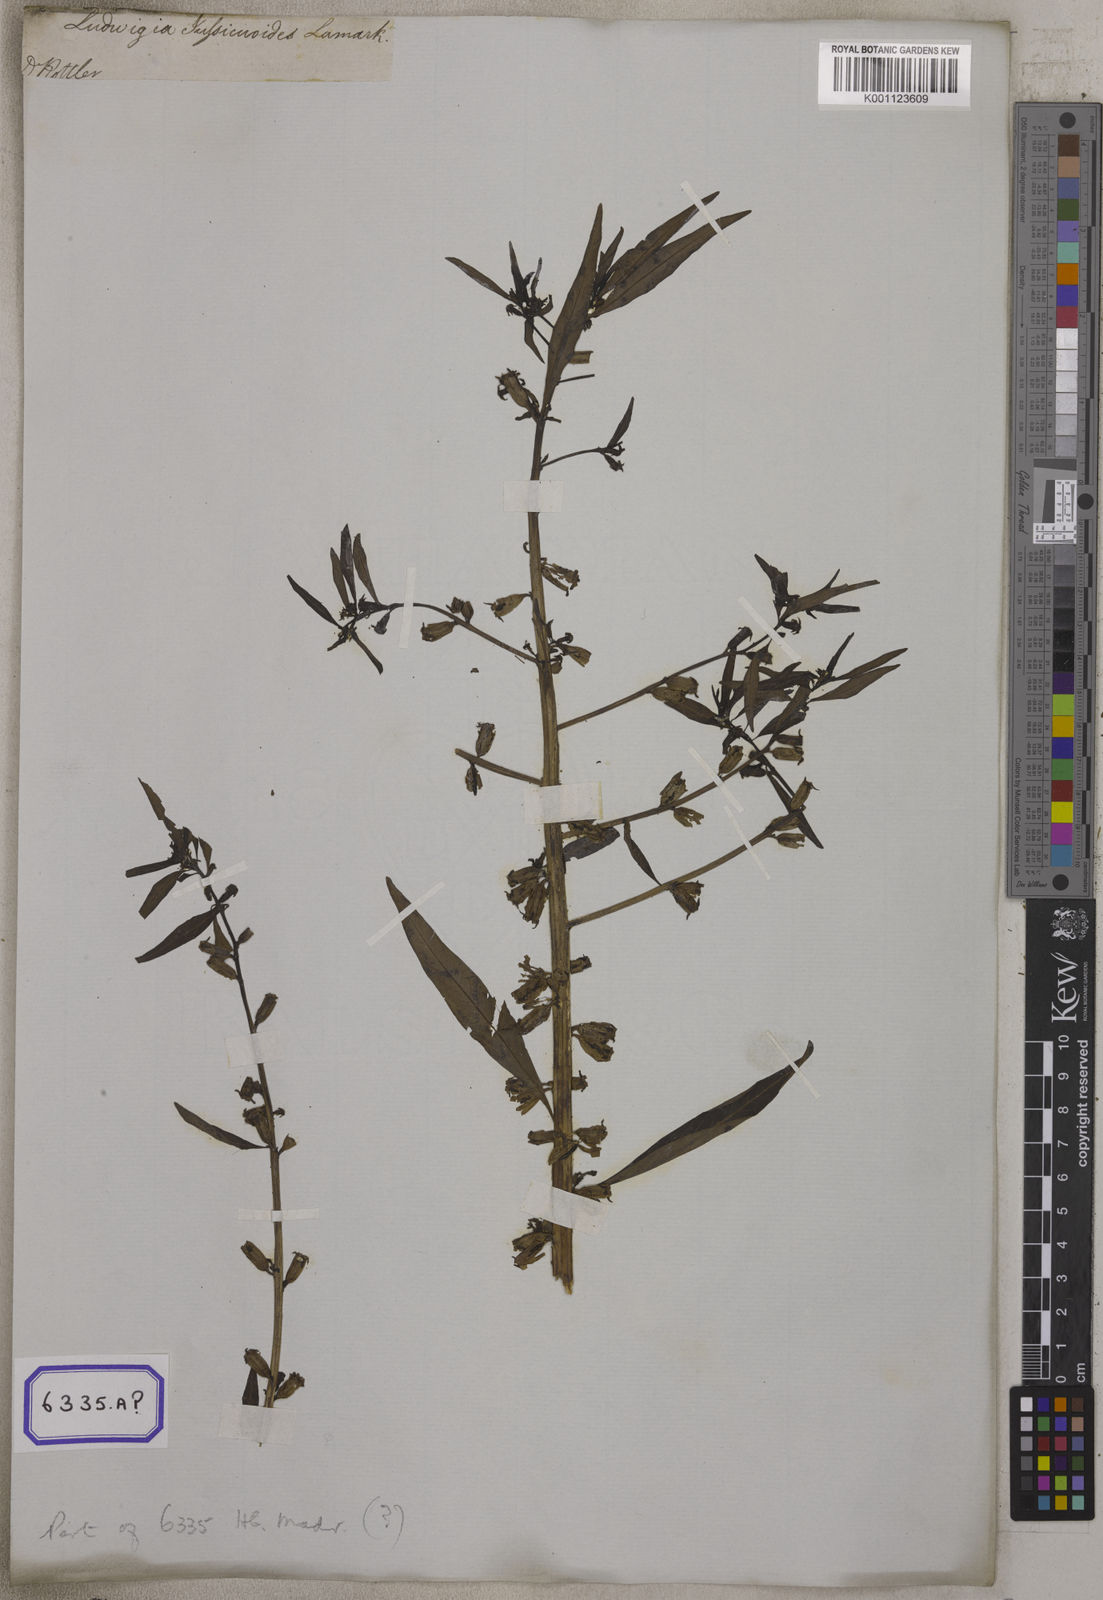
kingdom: Plantae
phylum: Tracheophyta
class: Magnoliopsida
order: Myrtales
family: Onagraceae
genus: Ludwigia
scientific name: Ludwigia perennis
